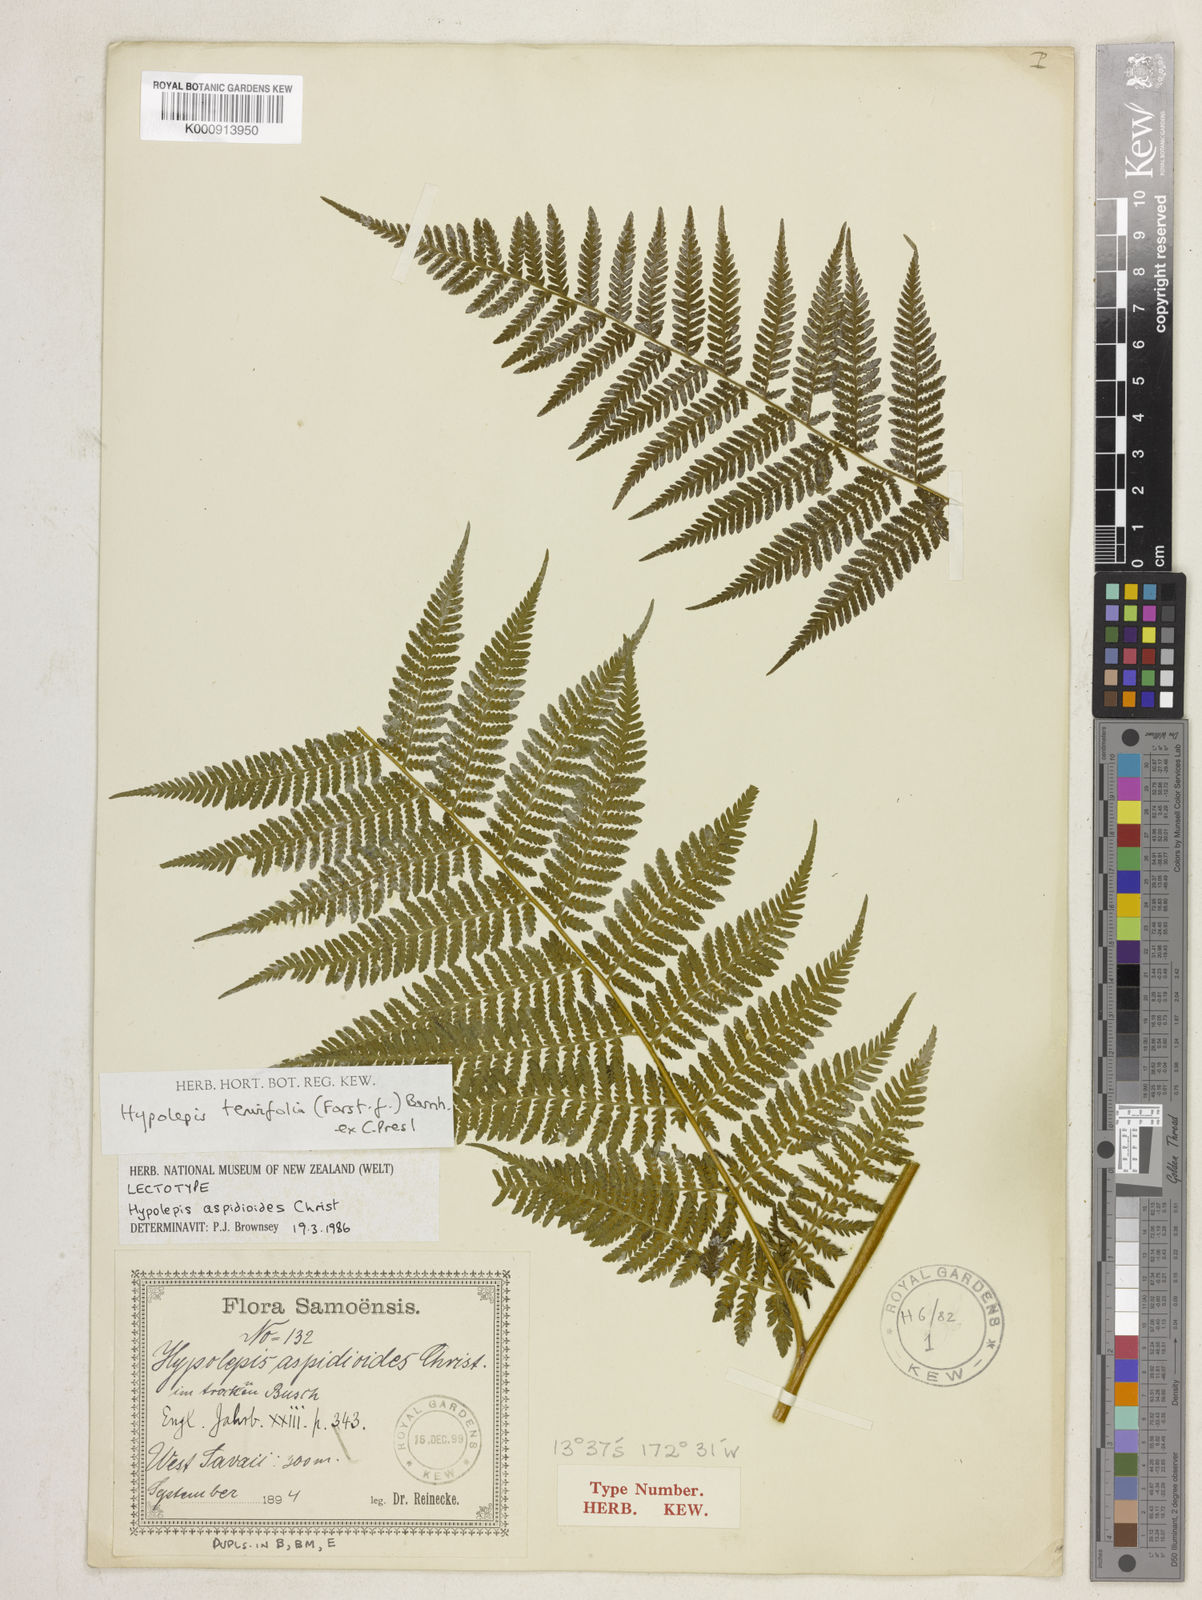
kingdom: Plantae
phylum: Tracheophyta
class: Polypodiopsida
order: Polypodiales
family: Dennstaedtiaceae
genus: Hypolepis
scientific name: Hypolepis tenuifolia
